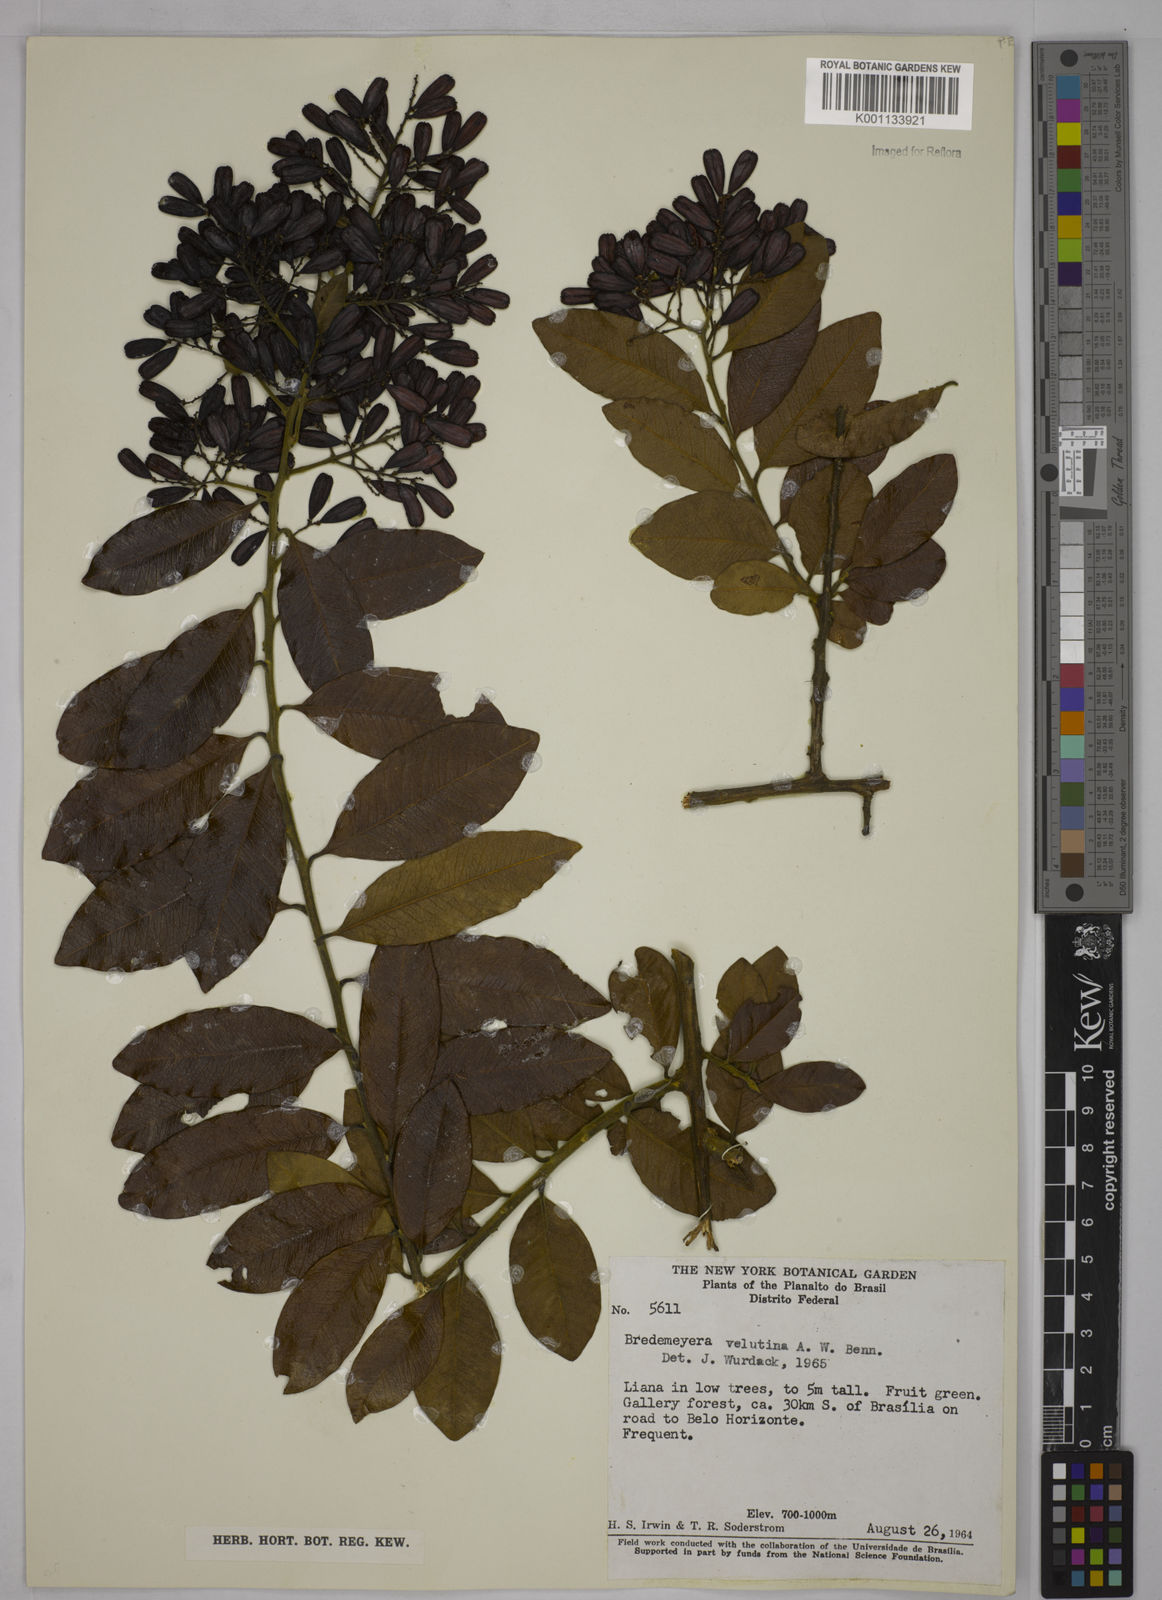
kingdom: Plantae
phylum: Tracheophyta
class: Magnoliopsida
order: Fabales
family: Polygalaceae
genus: Bredemeyera
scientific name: Bredemeyera hebeclada
